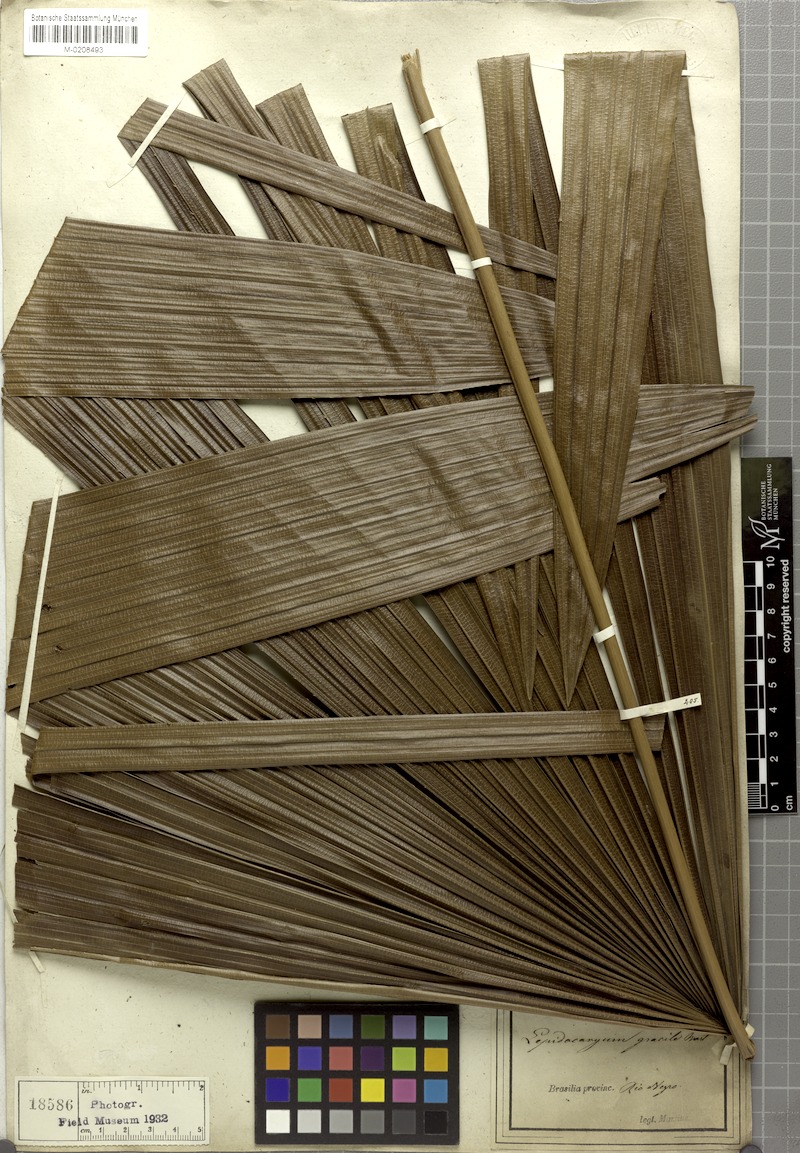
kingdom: Plantae
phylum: Tracheophyta
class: Liliopsida
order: Arecales
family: Arecaceae
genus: Lepidocaryum
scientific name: Lepidocaryum tenue
